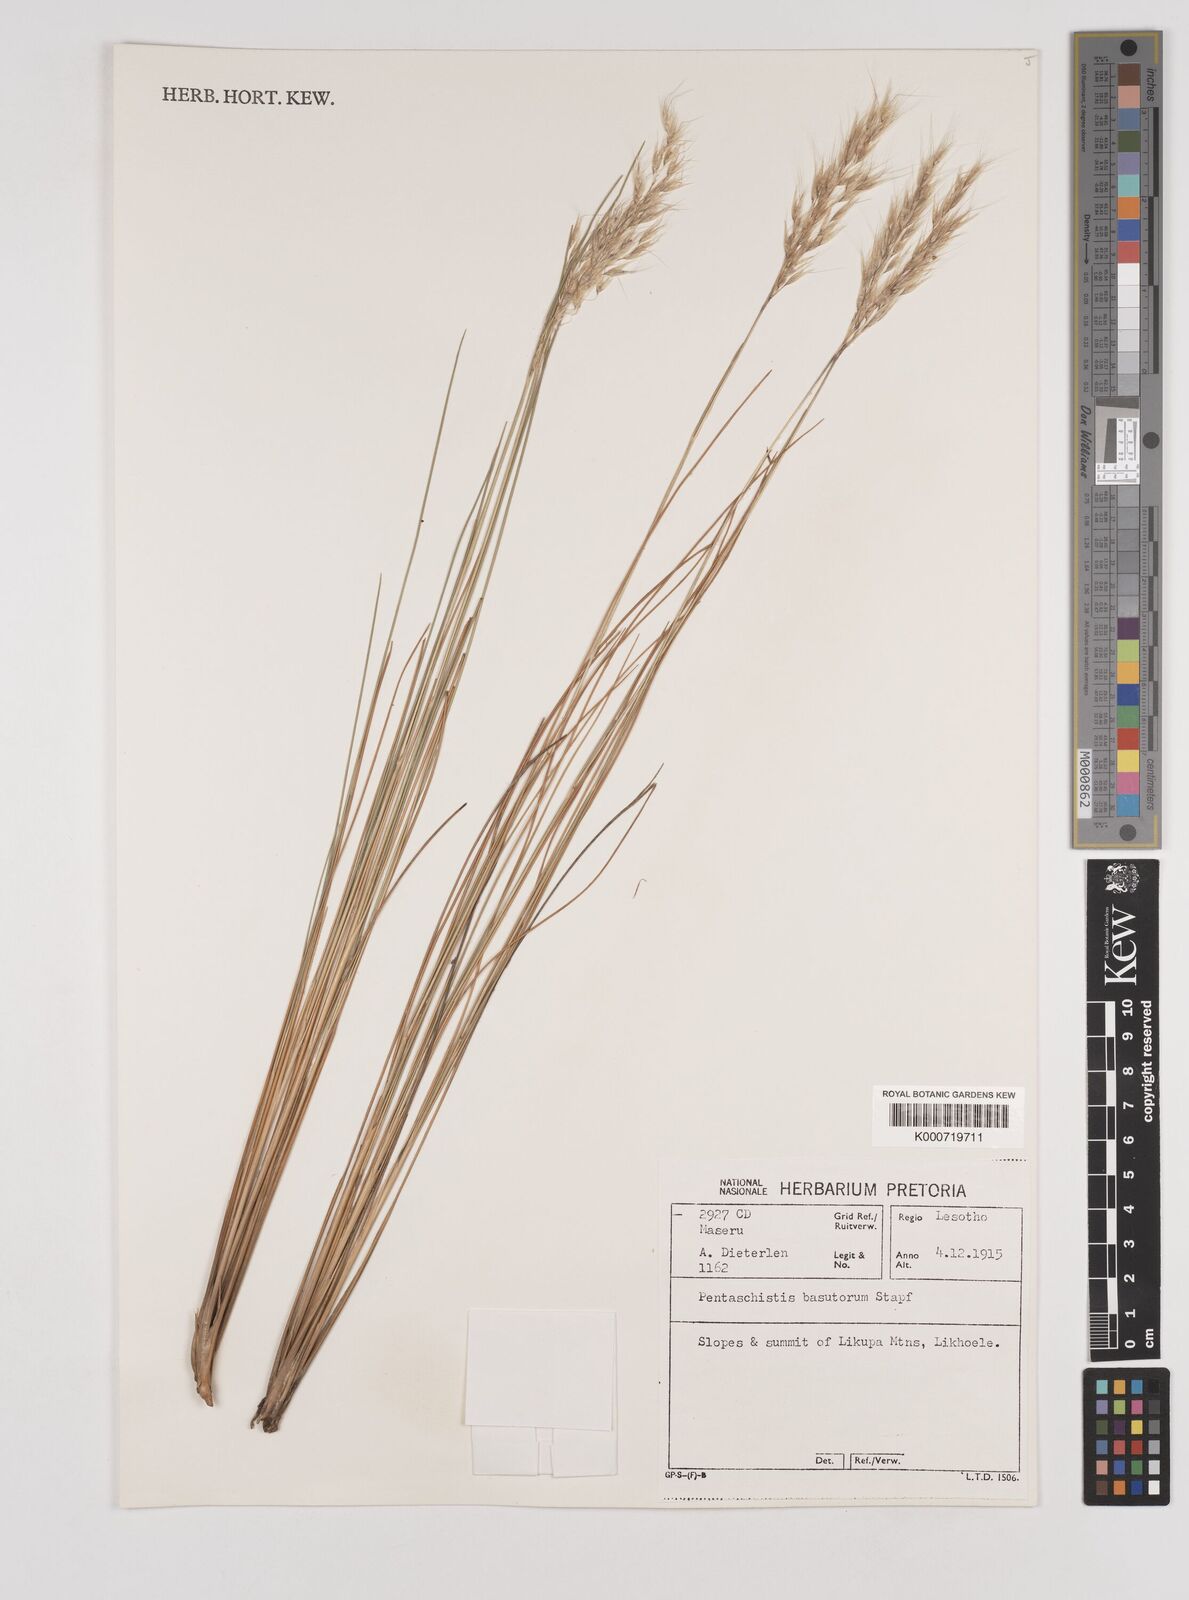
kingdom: Plantae
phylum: Tracheophyta
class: Liliopsida
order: Poales
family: Poaceae
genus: Pentameris
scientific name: Pentameris basutorum
